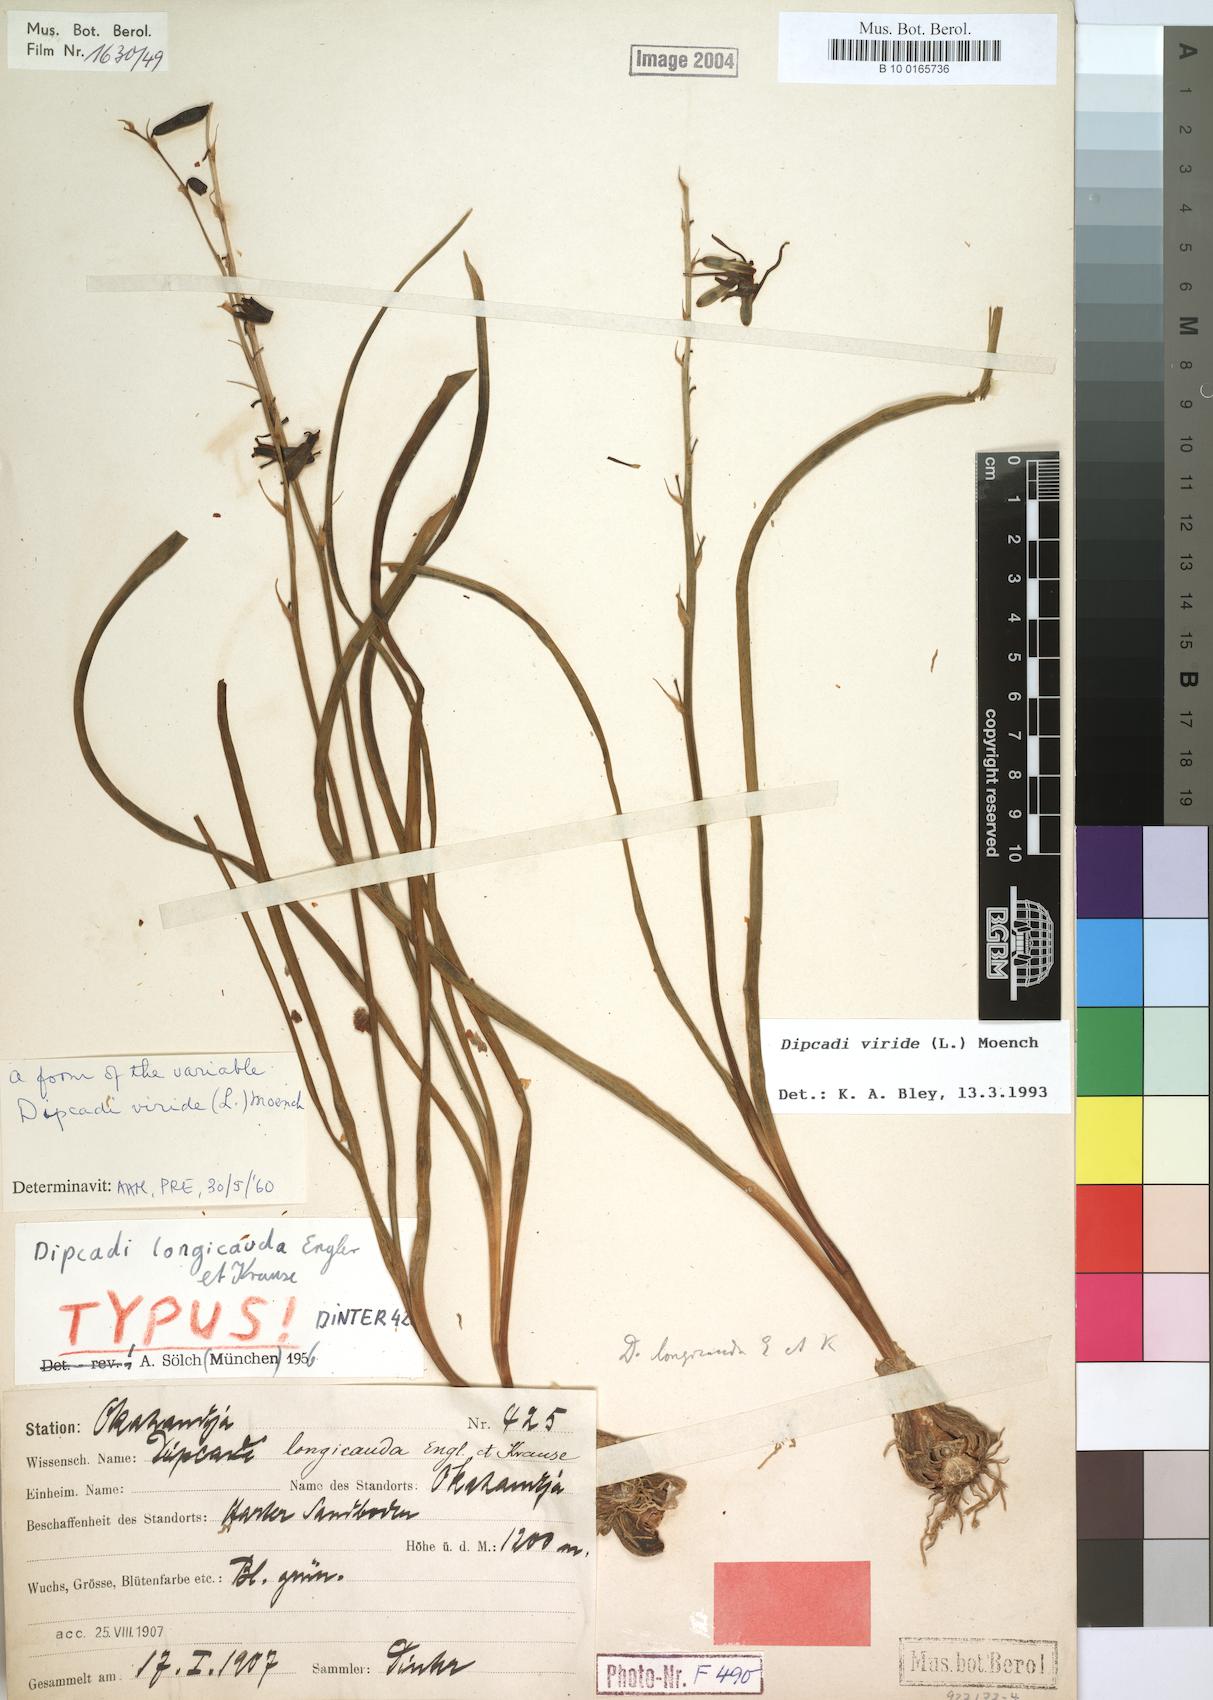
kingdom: Plantae
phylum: Tracheophyta
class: Liliopsida
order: Asparagales
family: Asparagaceae
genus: Dipcadi
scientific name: Dipcadi viride
